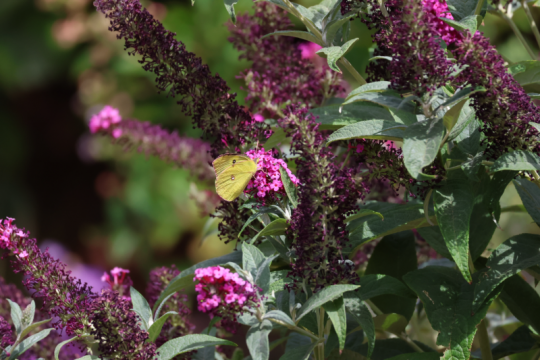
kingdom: Animalia
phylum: Arthropoda
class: Insecta
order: Lepidoptera
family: Pieridae
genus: Colias
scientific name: Colias eurytheme
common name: Orange Sulphur
